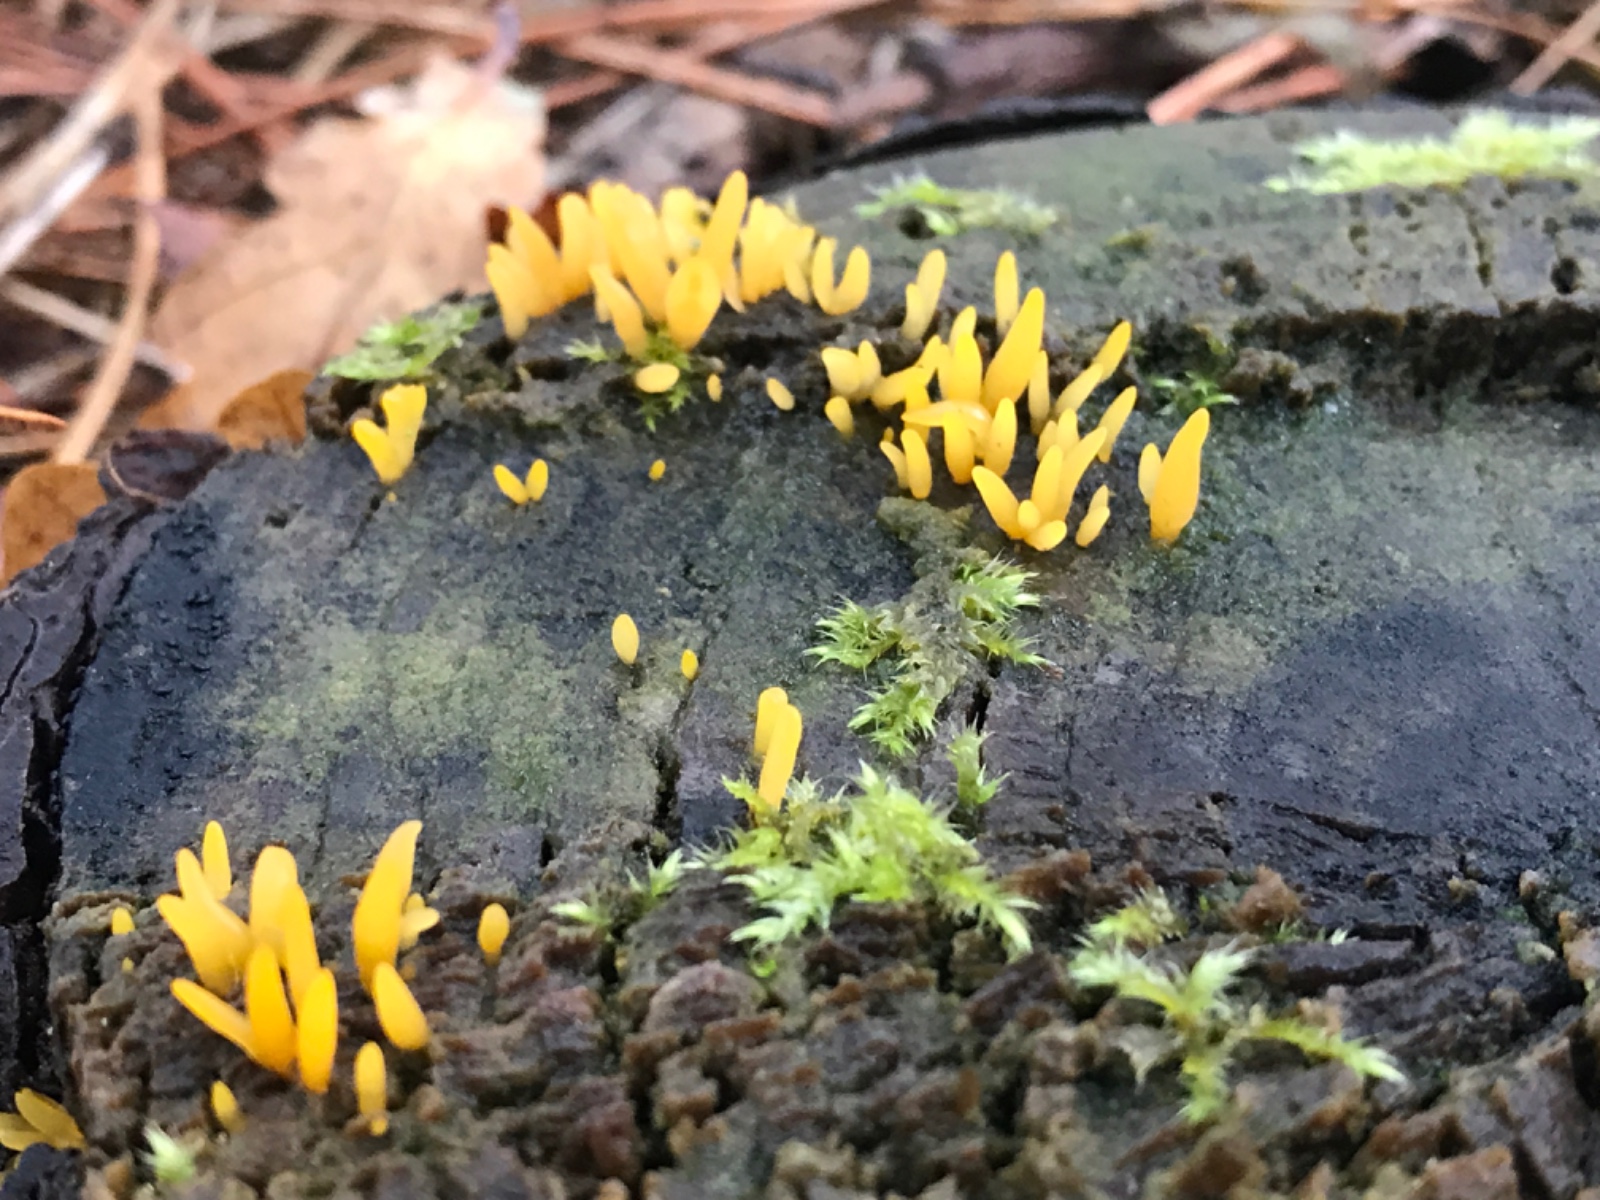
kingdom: Fungi
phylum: Basidiomycota
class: Dacrymycetes
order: Dacrymycetales
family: Dacrymycetaceae
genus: Calocera
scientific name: Calocera cornea
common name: liden guldgaffel
